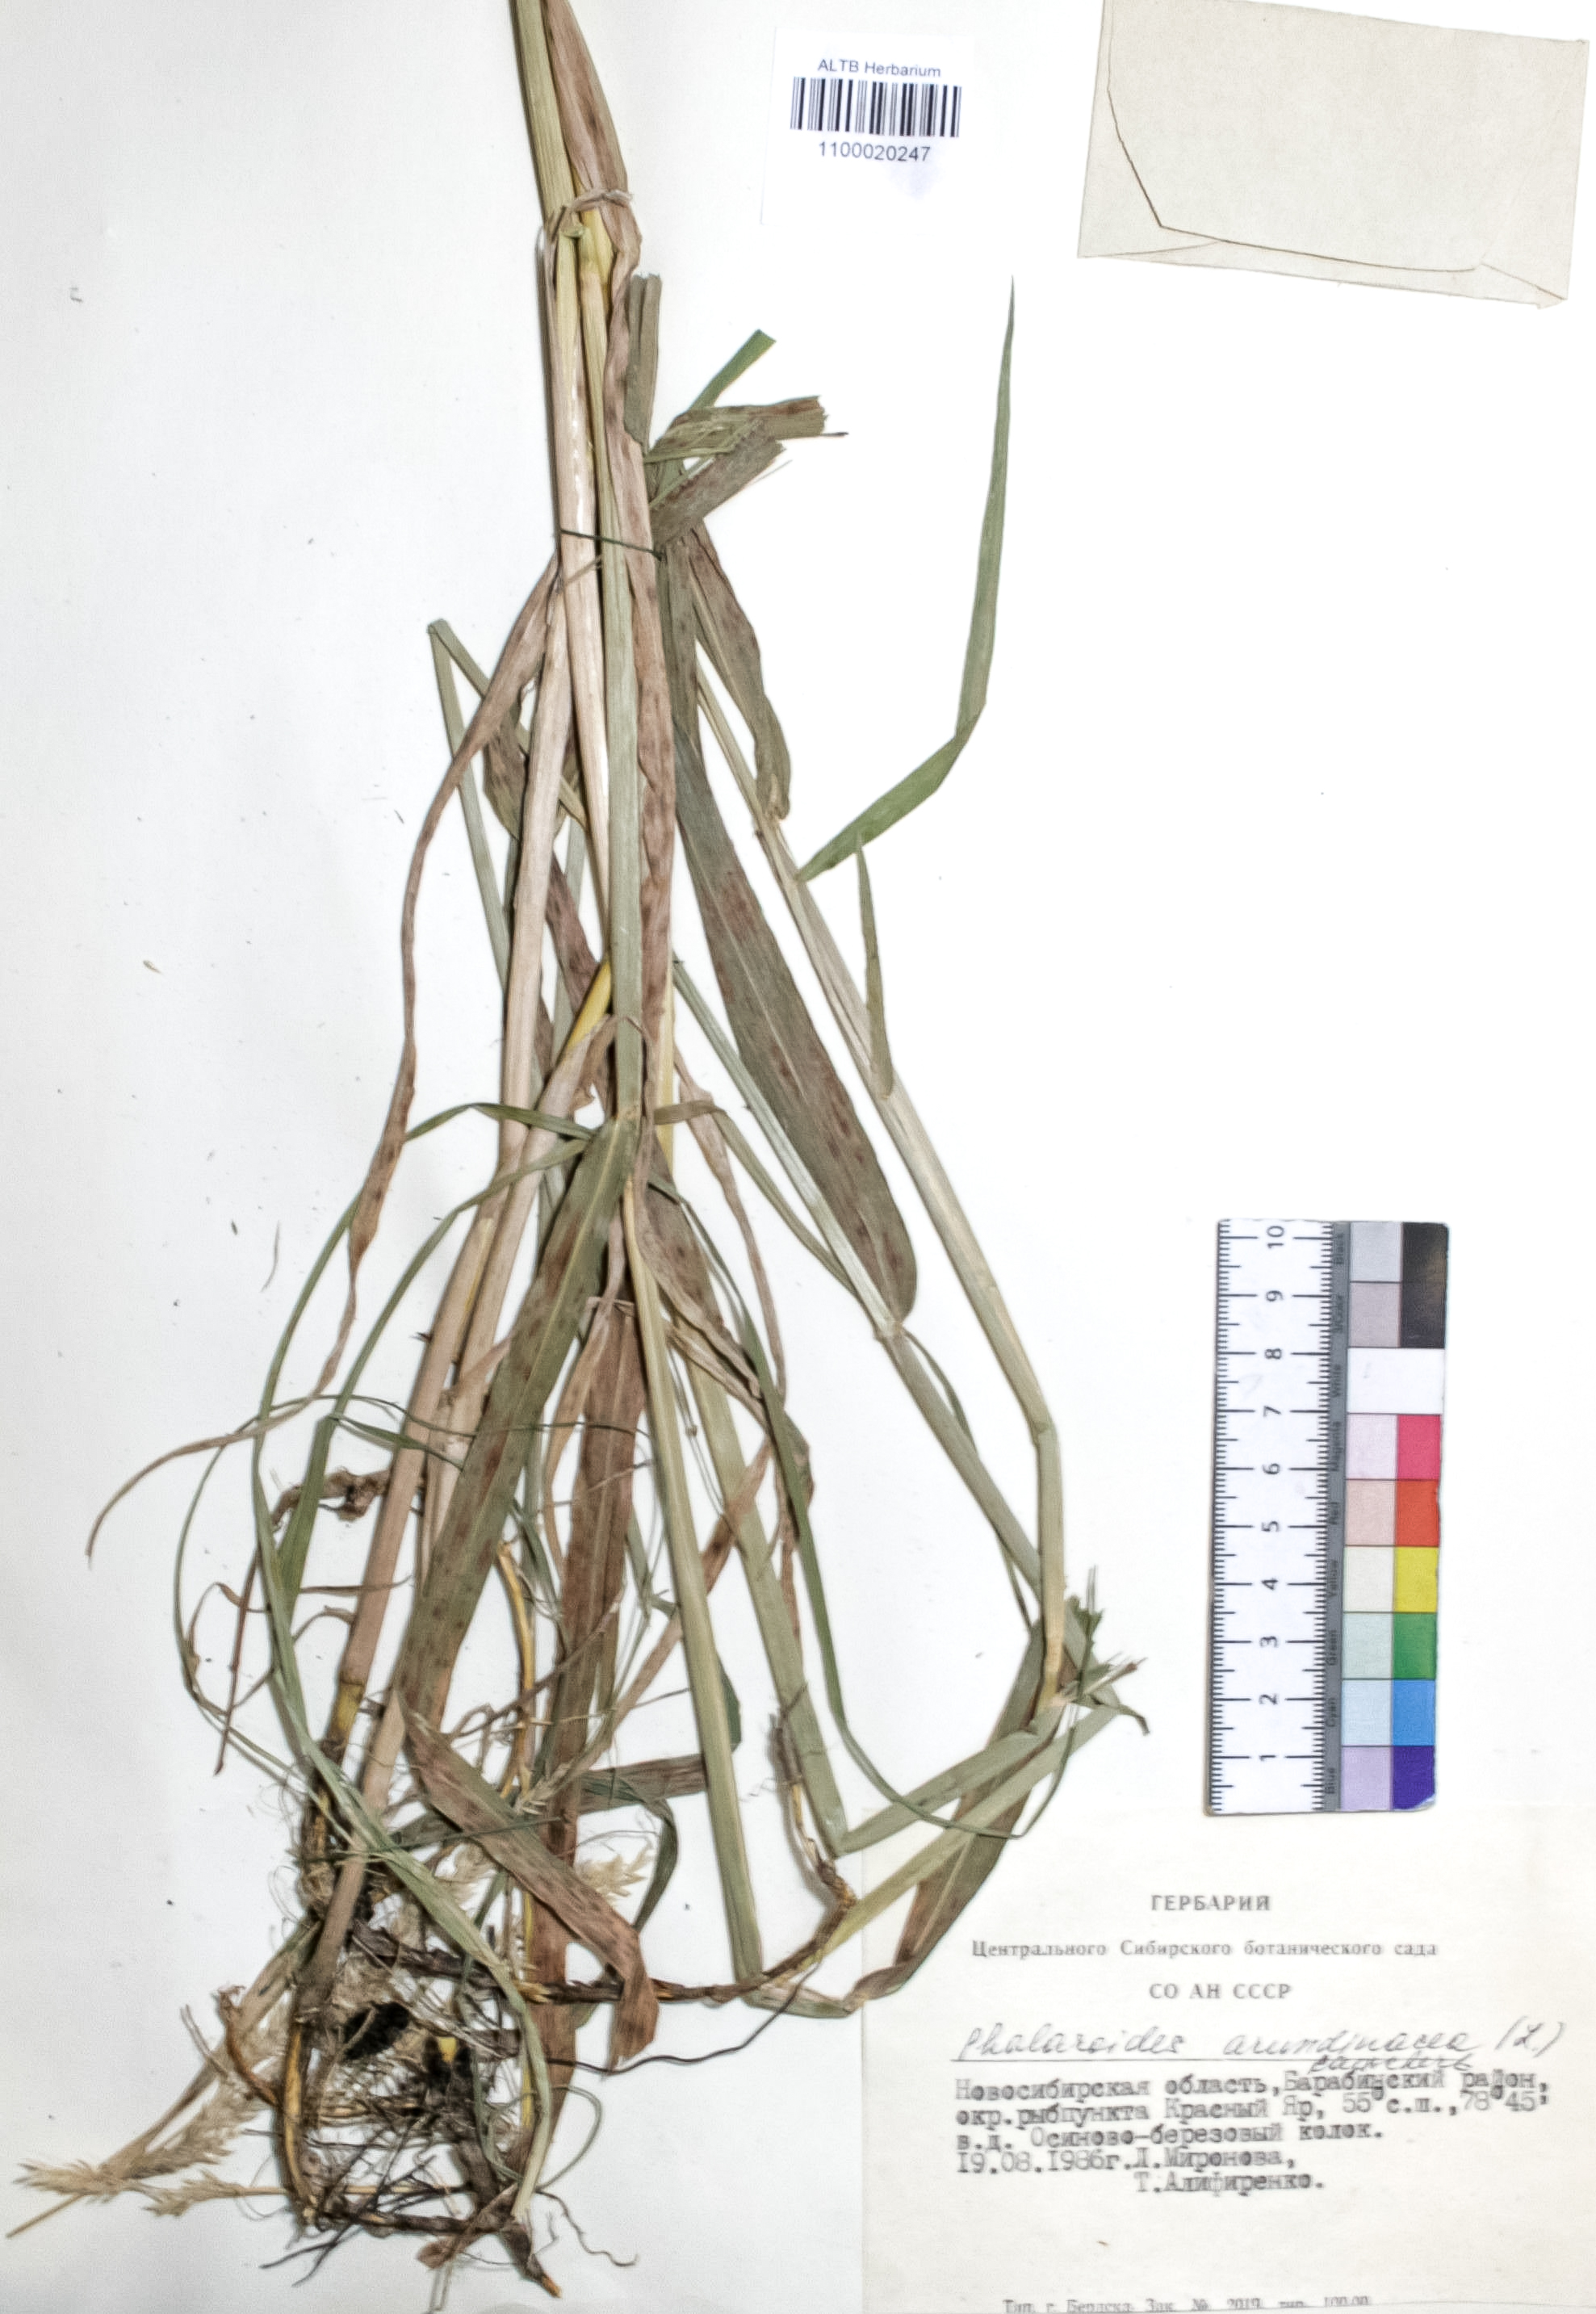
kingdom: Plantae
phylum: Tracheophyta
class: Liliopsida
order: Poales
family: Poaceae
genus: Phalaris
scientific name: Phalaris arundinacea
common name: Reed canary-grass
